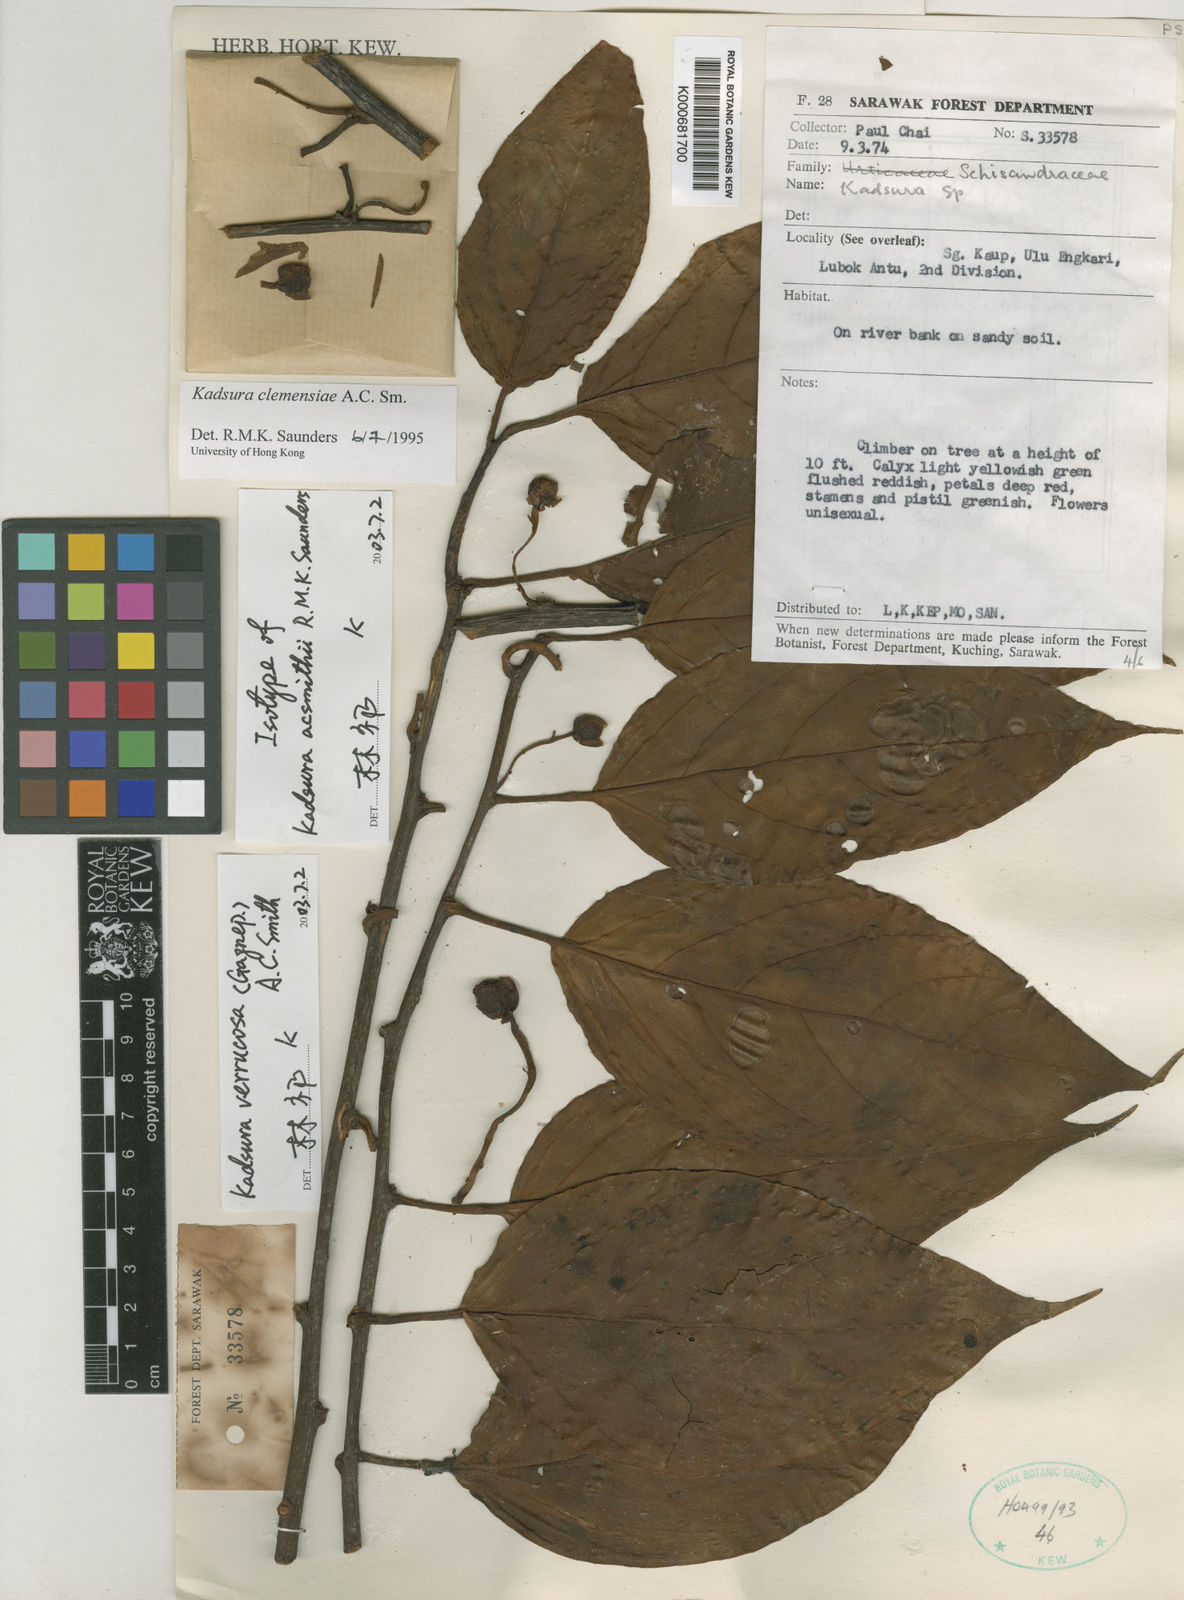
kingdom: Plantae
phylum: Tracheophyta
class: Magnoliopsida
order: Austrobaileyales
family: Schisandraceae
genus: Kadsura
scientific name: Kadsura verrucosa
